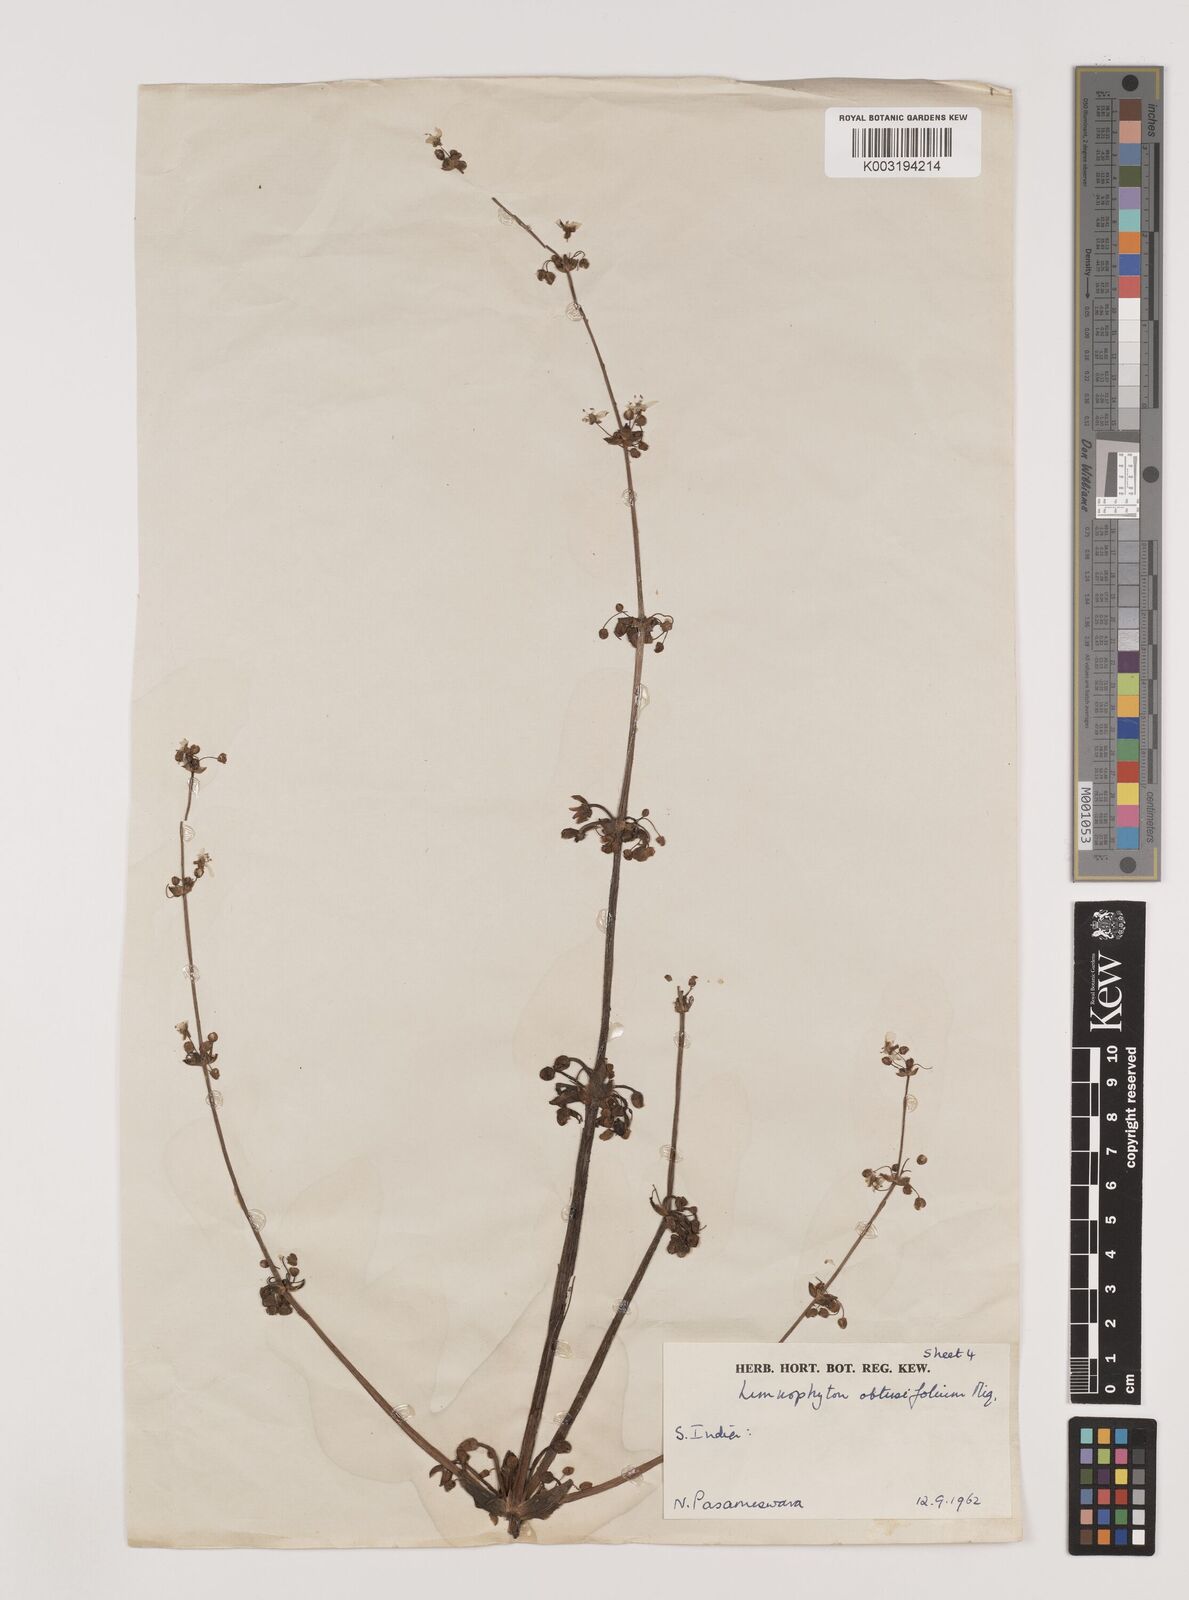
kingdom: Plantae
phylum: Tracheophyta
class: Liliopsida
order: Alismatales
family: Alismataceae
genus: Limnophyton
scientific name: Limnophyton obtusifolium
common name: Arrow head
